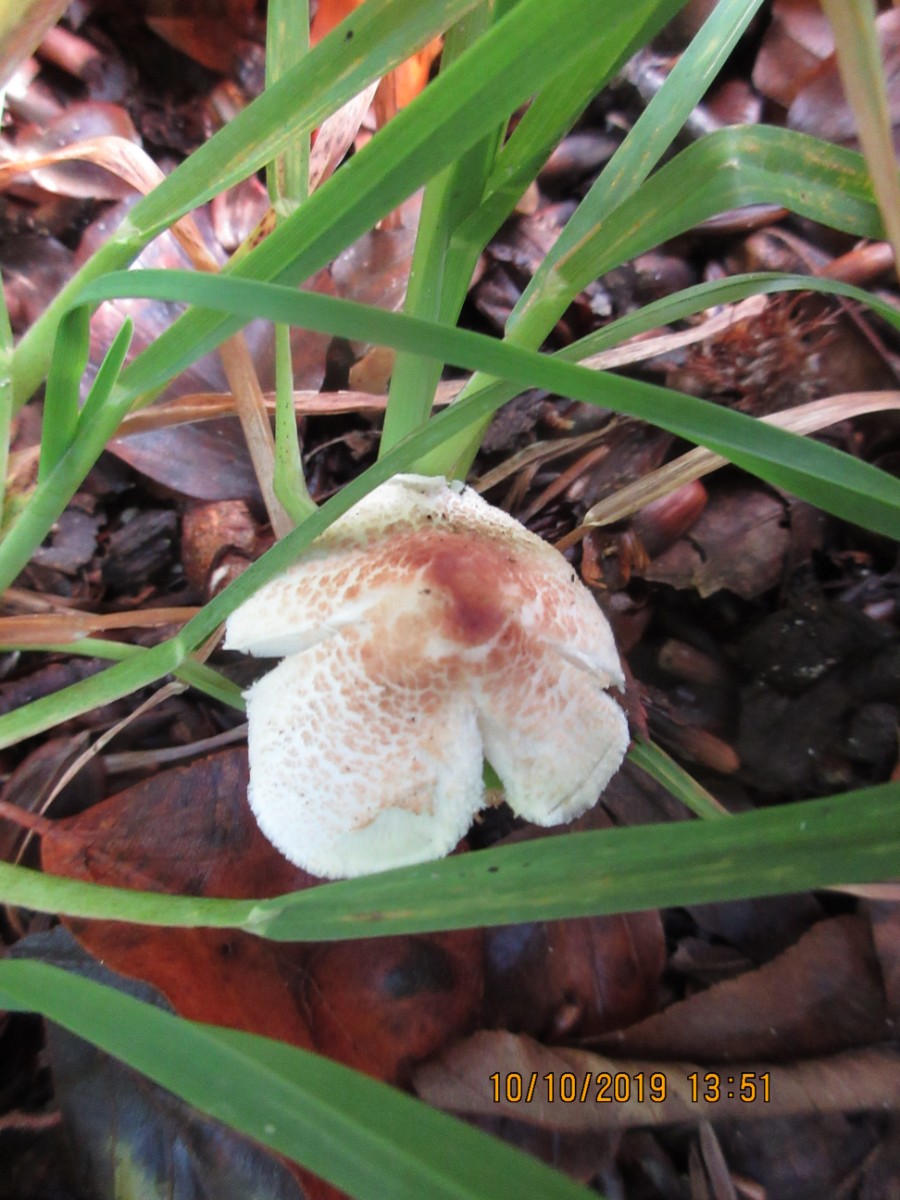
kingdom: Fungi
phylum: Basidiomycota
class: Agaricomycetes
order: Agaricales
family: Agaricaceae
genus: Lepiota
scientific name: Lepiota cristata
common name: stinkende parasolhat
